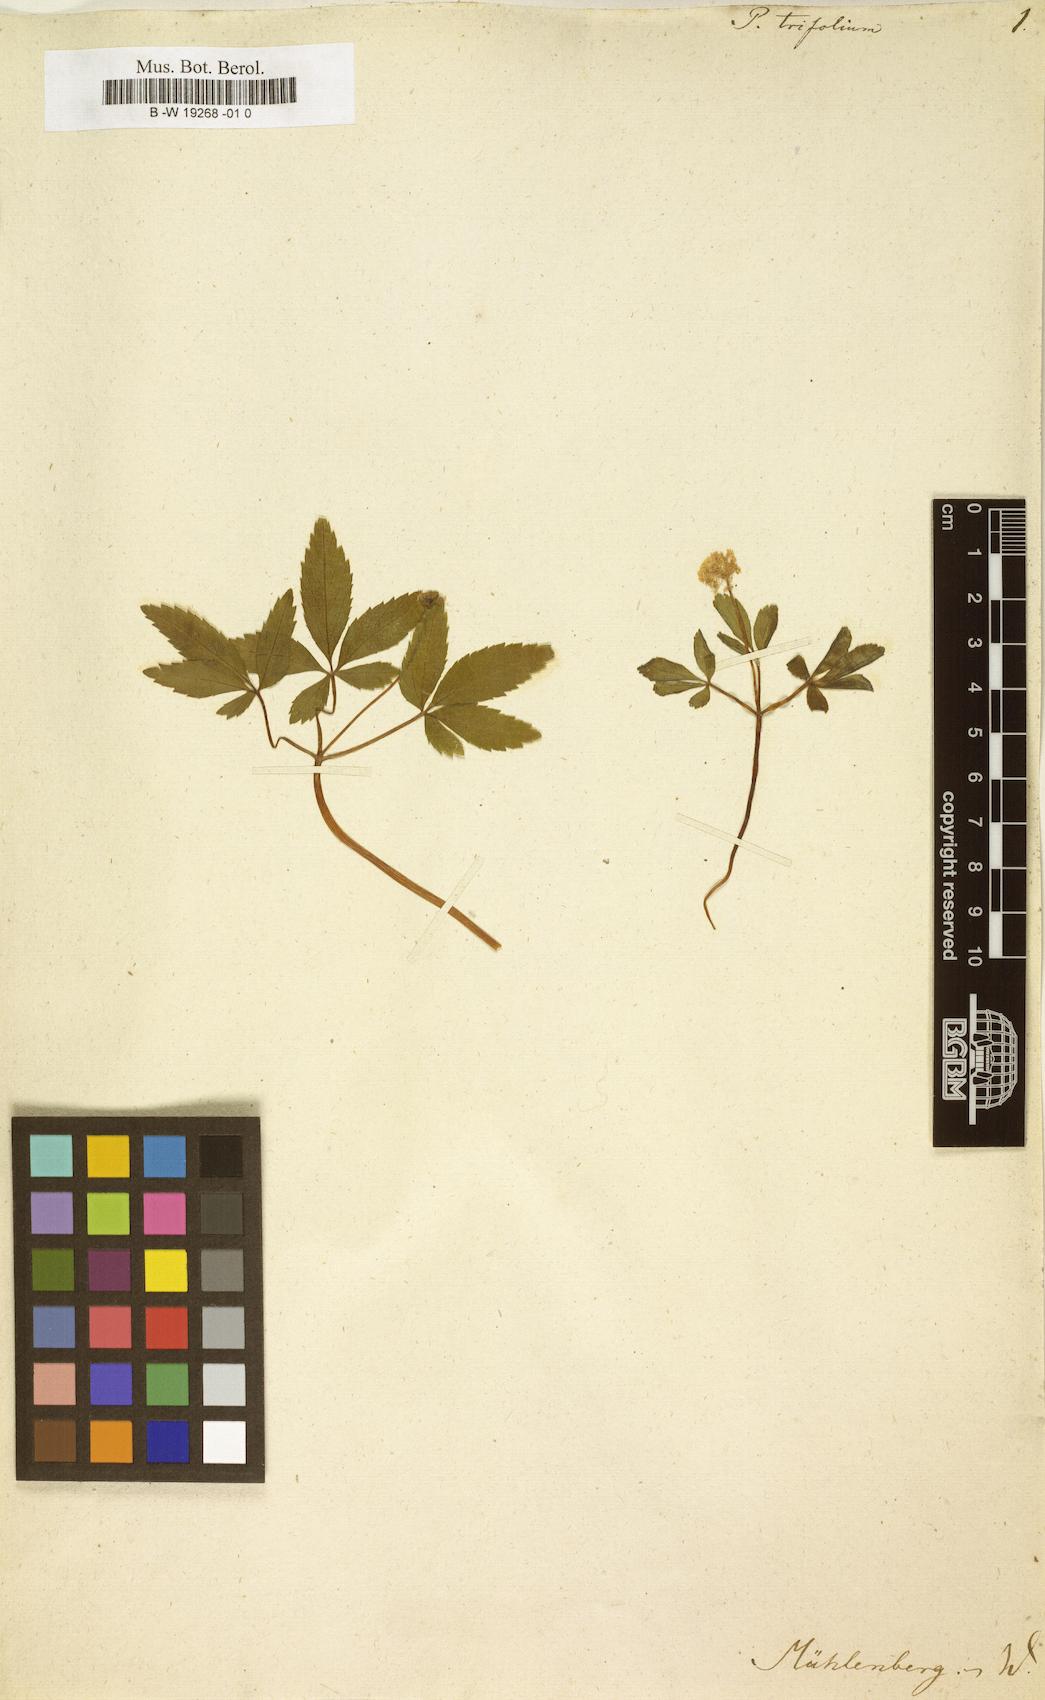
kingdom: Plantae
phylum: Tracheophyta
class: Magnoliopsida
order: Apiales
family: Araliaceae
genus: Panax
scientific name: Panax trifolius
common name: Dwarf ginseng
